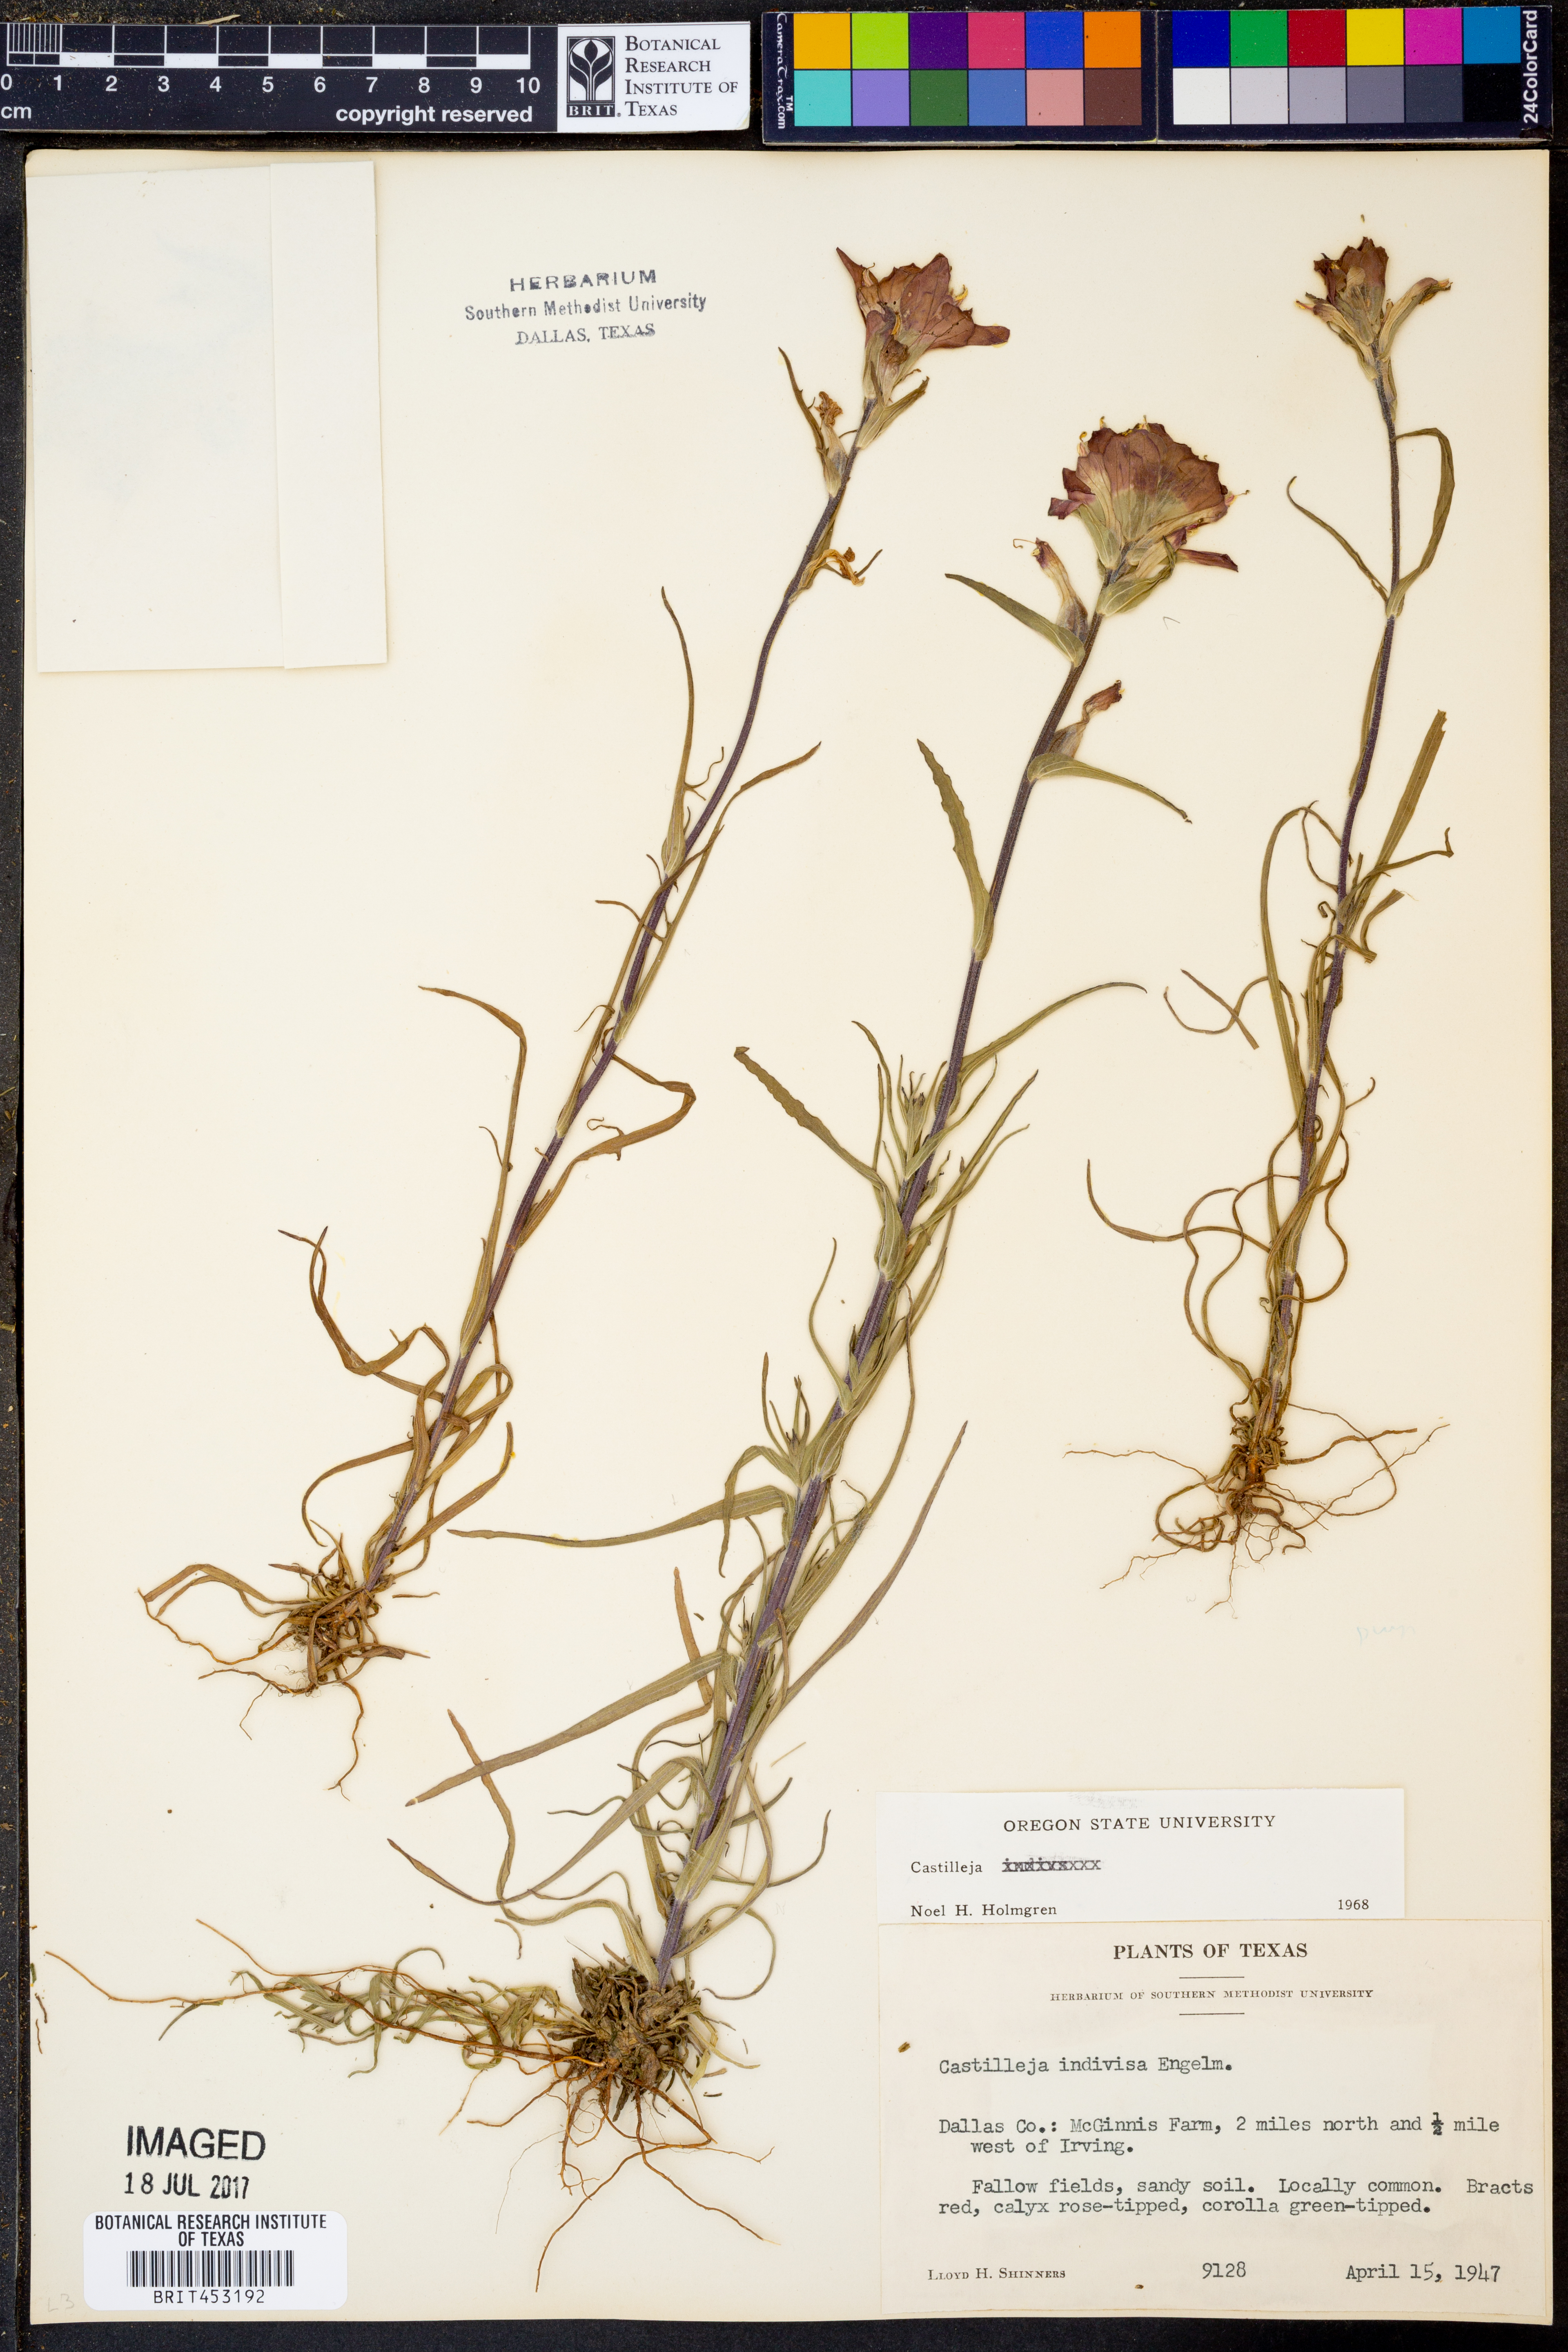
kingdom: Plantae
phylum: Tracheophyta
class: Magnoliopsida
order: Lamiales
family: Orobanchaceae
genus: Castilleja
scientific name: Castilleja indivisa
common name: Texas paintbrush
